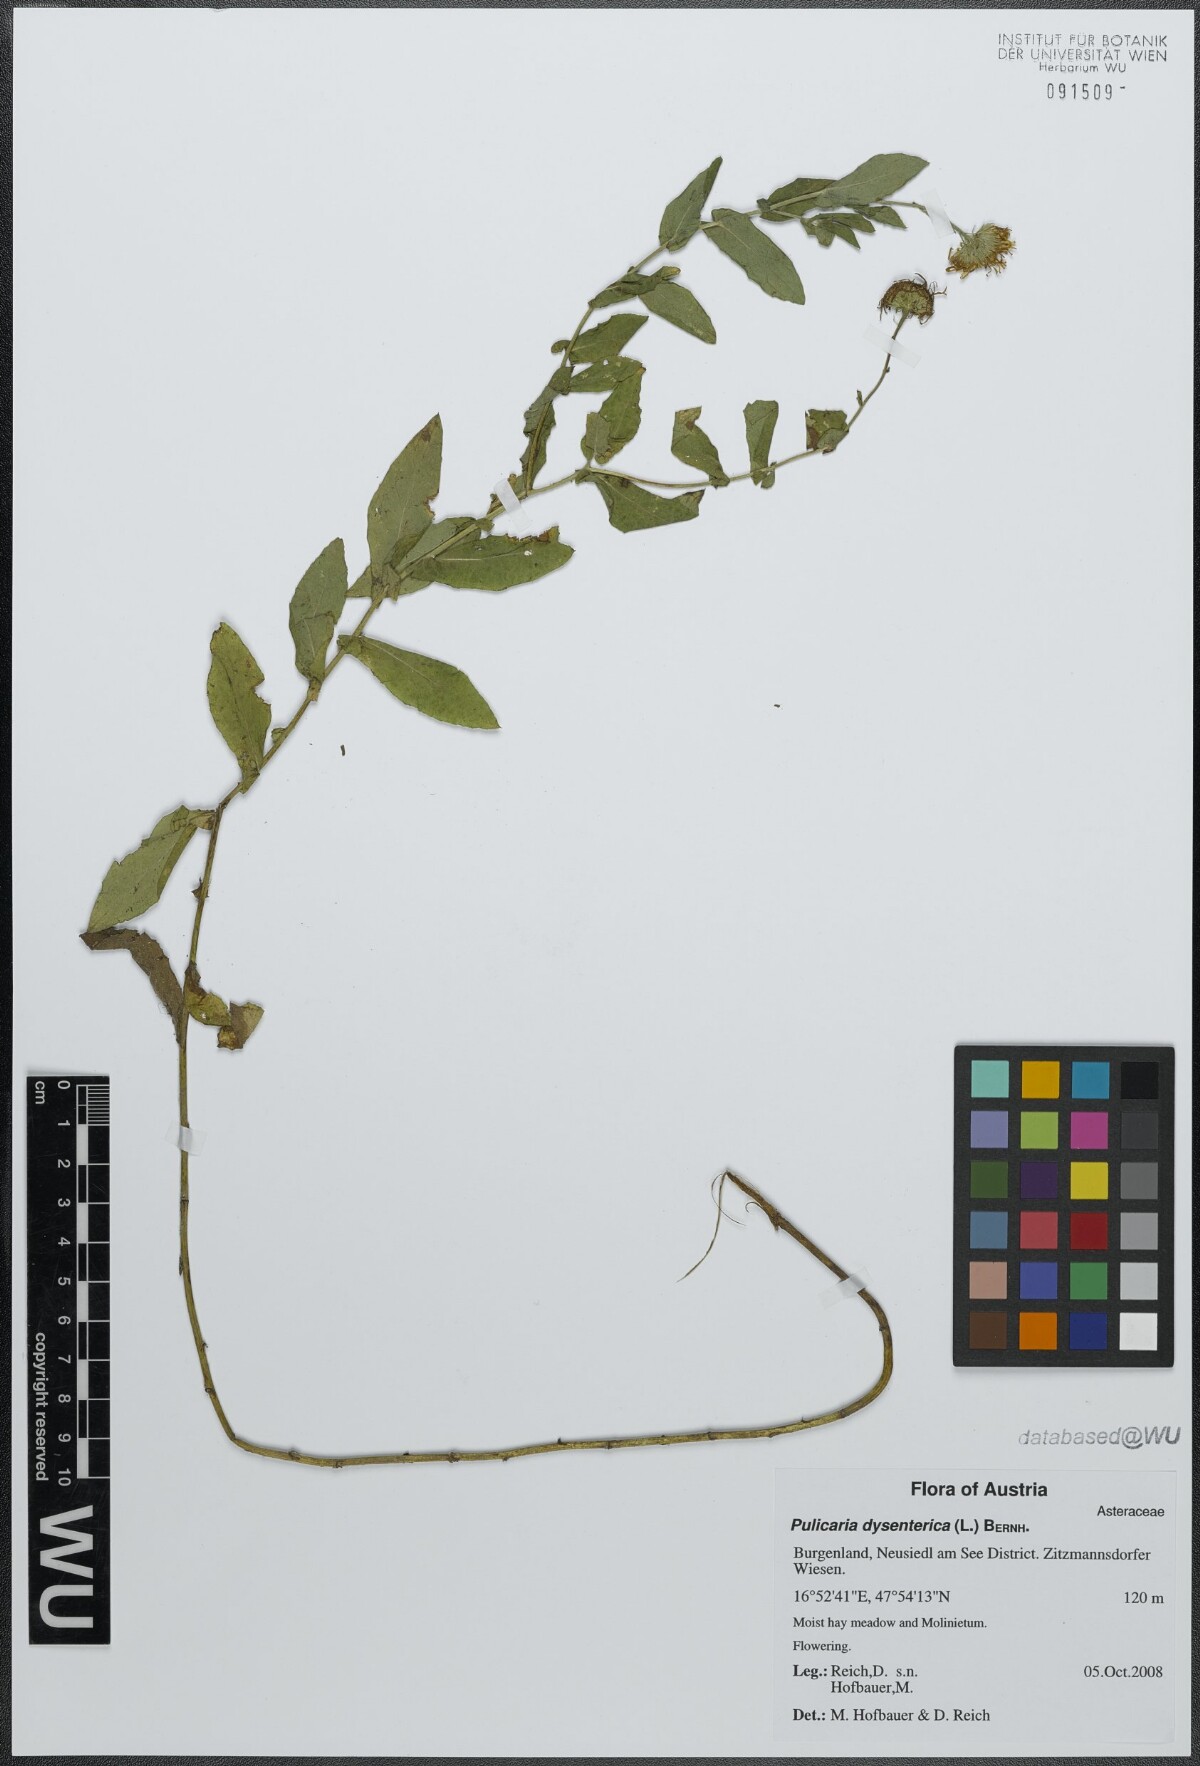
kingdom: Plantae
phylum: Tracheophyta
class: Magnoliopsida
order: Asterales
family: Asteraceae
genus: Pulicaria
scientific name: Pulicaria dysenterica
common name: Common fleabane
